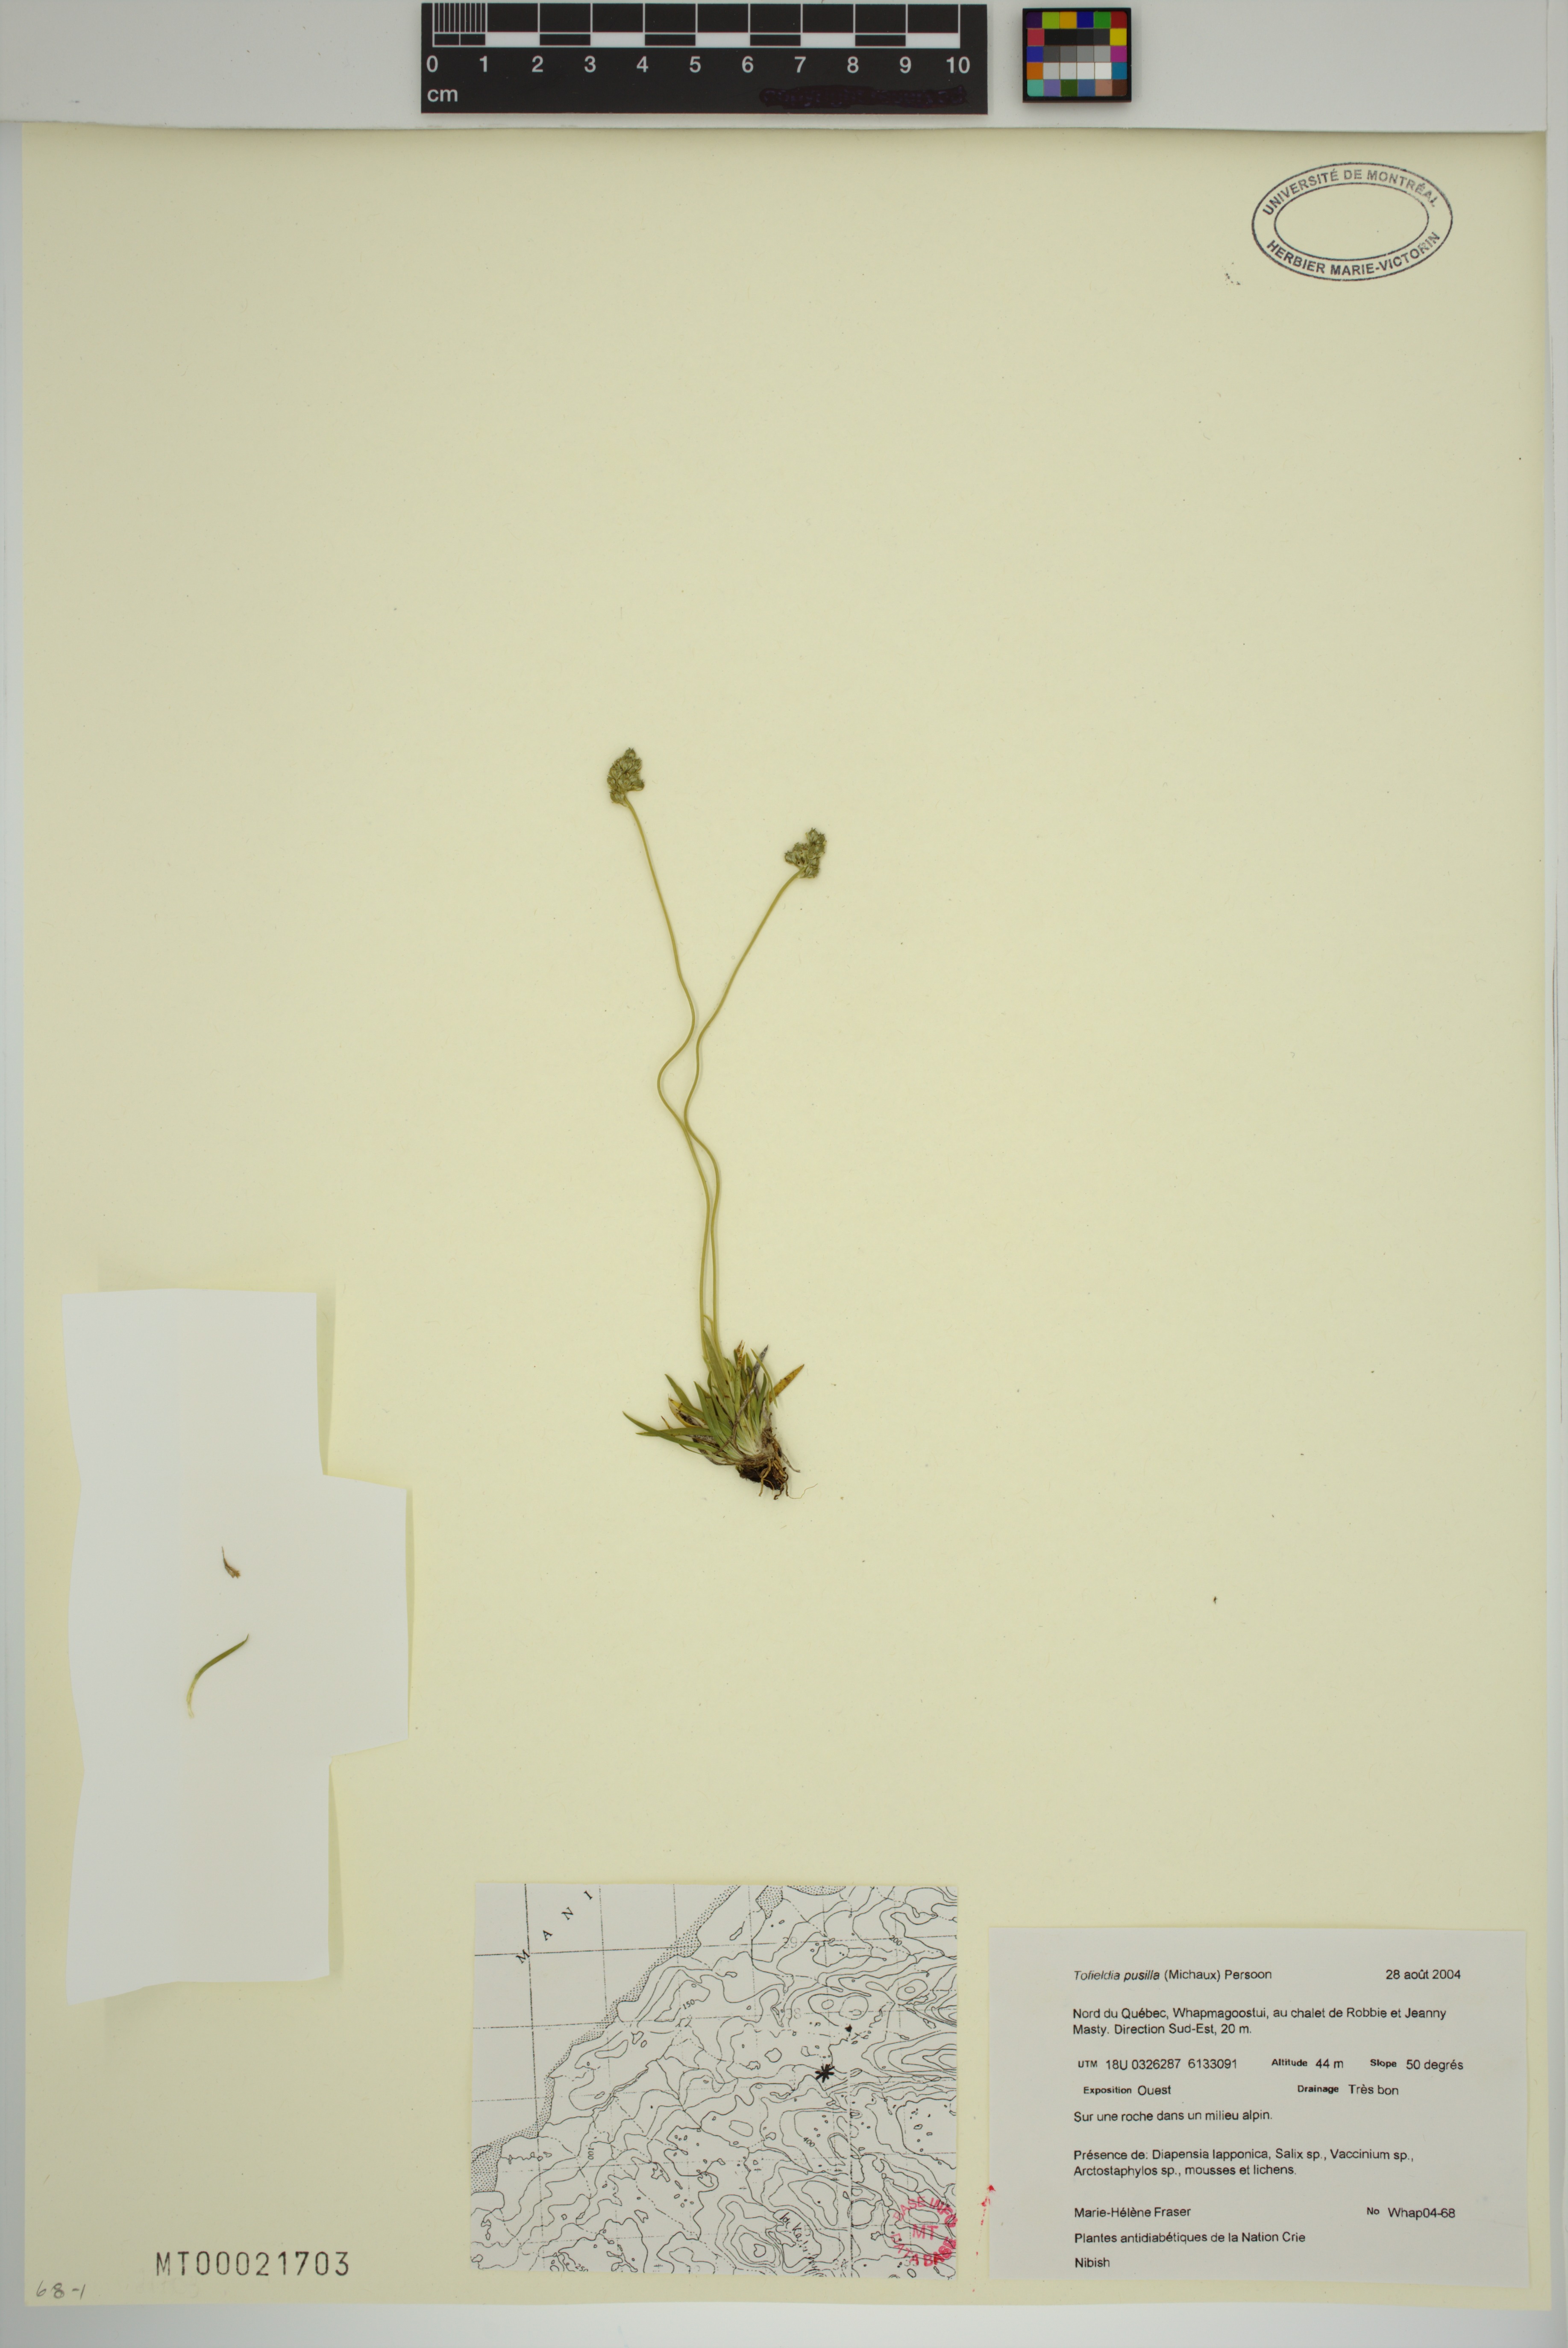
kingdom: Plantae
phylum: Tracheophyta
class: Liliopsida
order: Alismatales
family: Tofieldiaceae
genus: Tofieldia
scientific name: Tofieldia pusilla
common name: Scottish false asphodel
